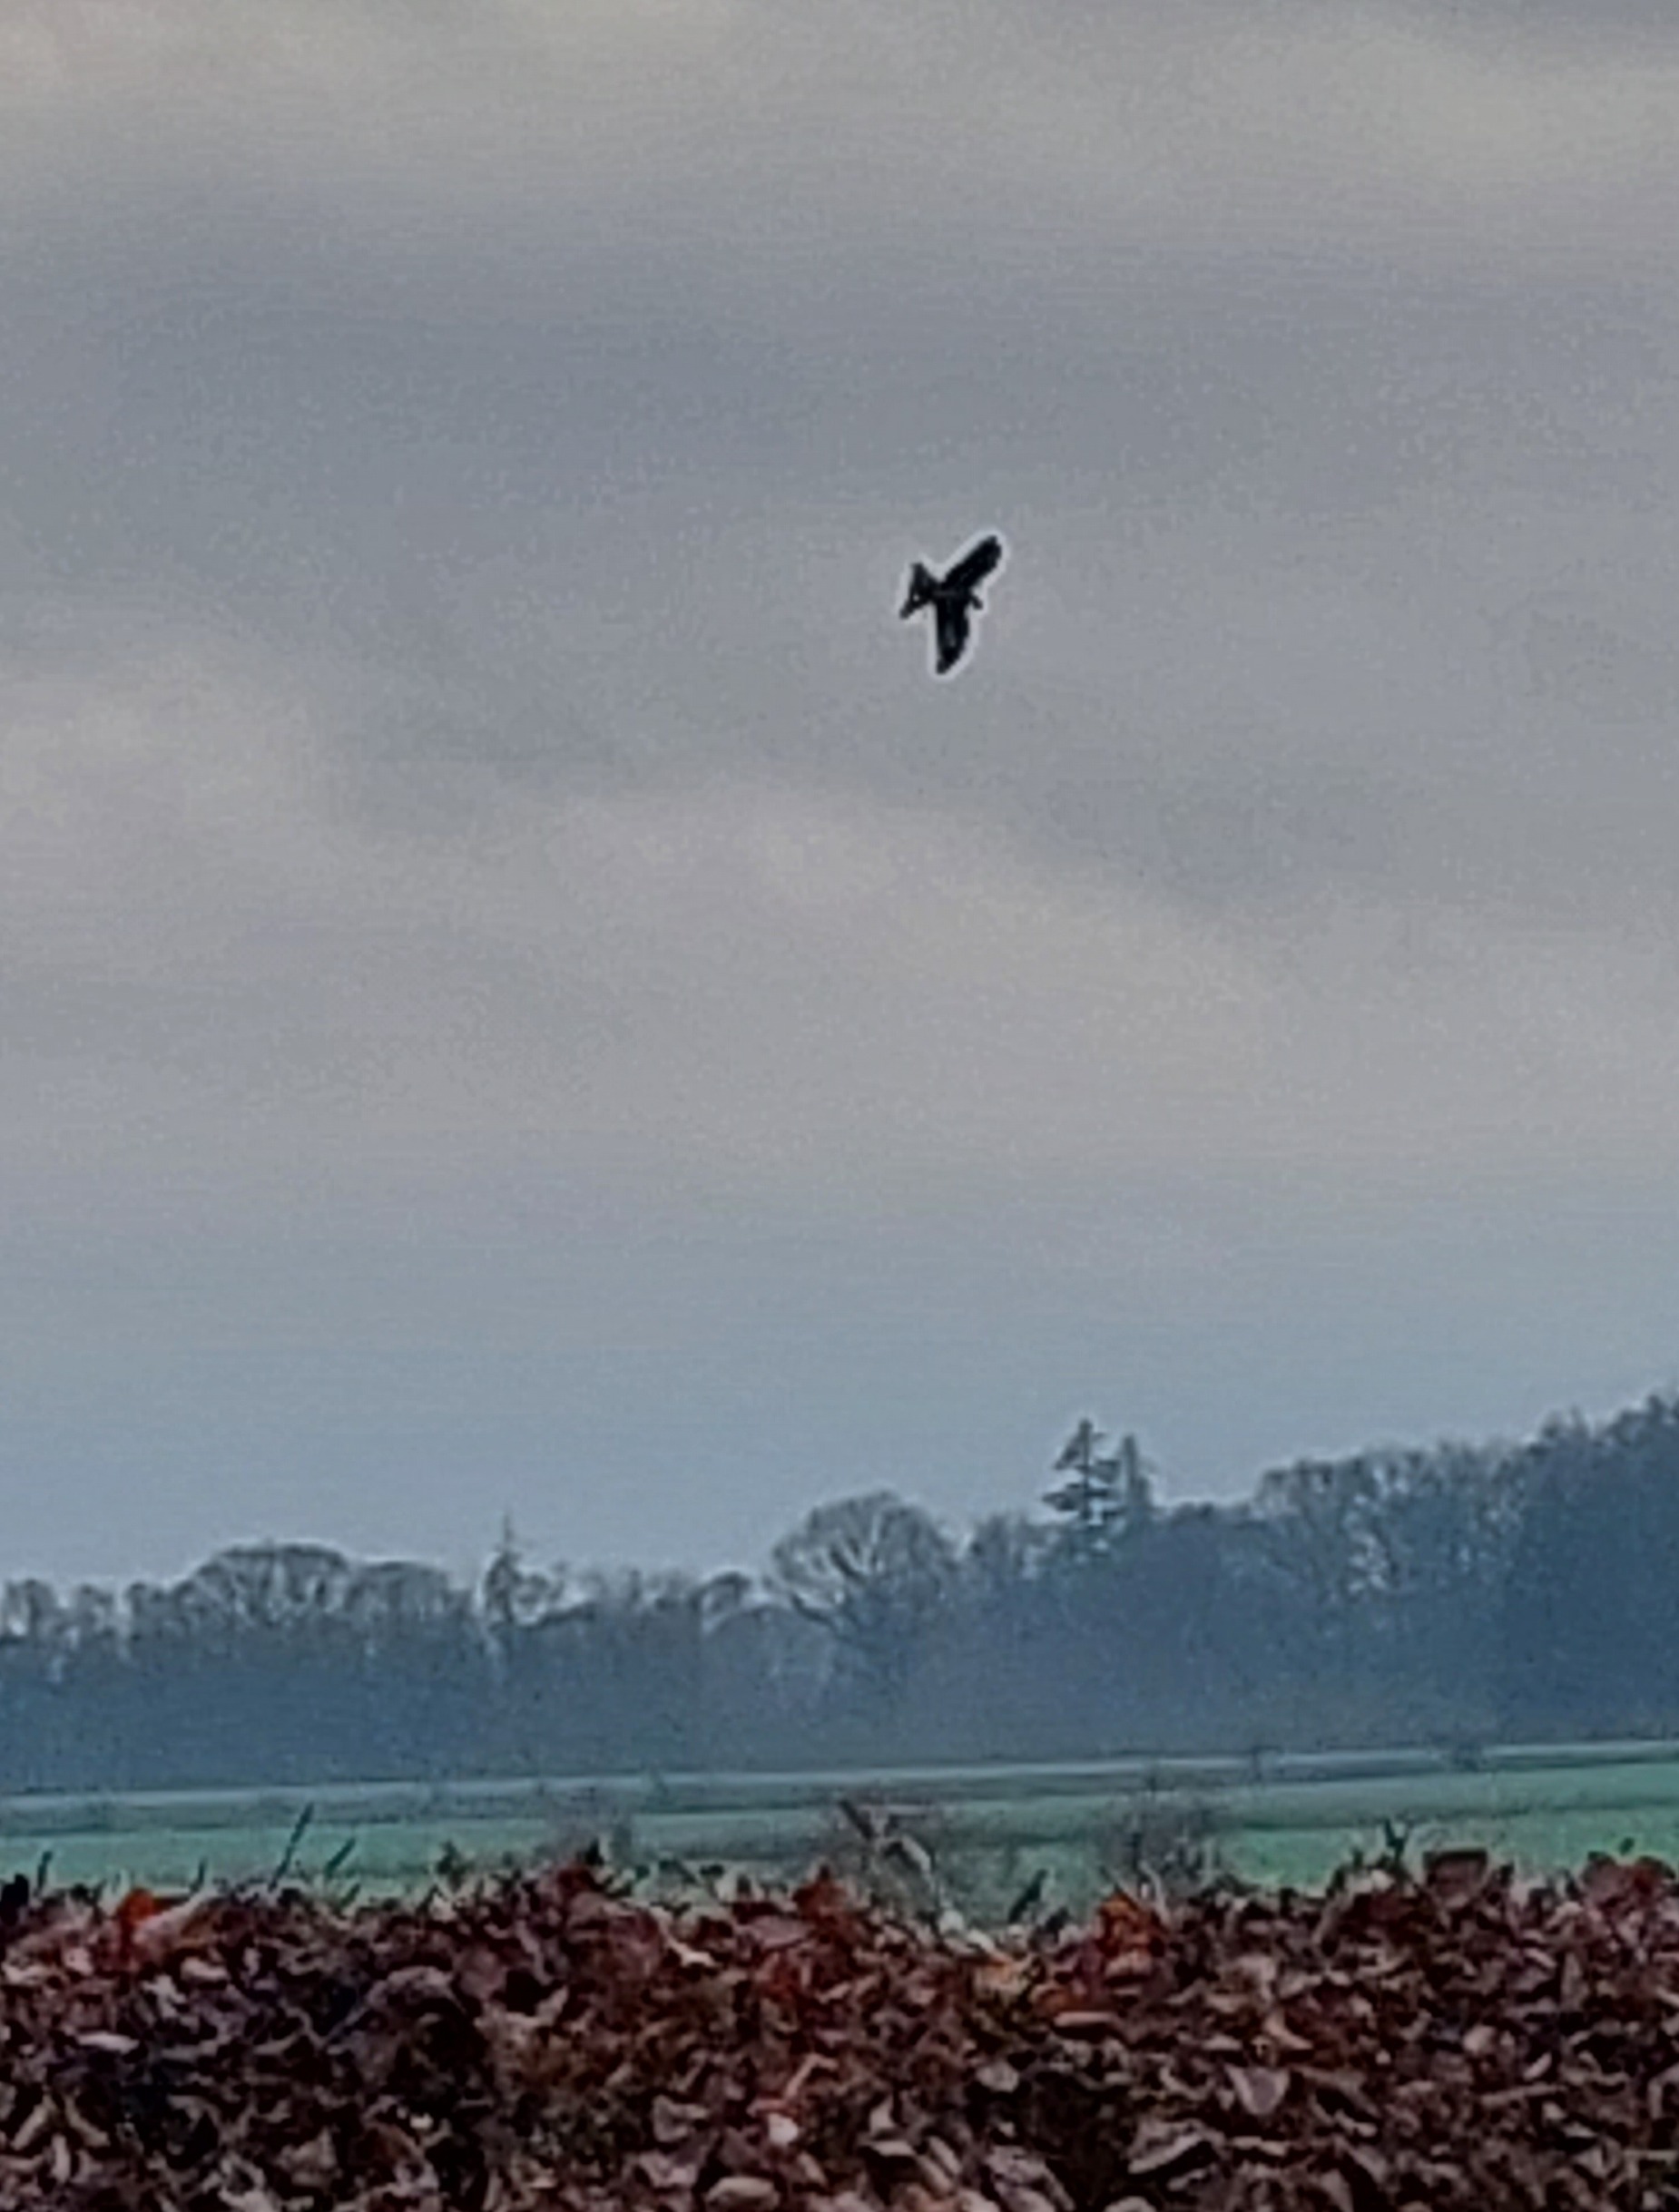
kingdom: Animalia
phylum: Chordata
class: Aves
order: Accipitriformes
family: Accipitridae
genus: Milvus
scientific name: Milvus milvus
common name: Rød glente
